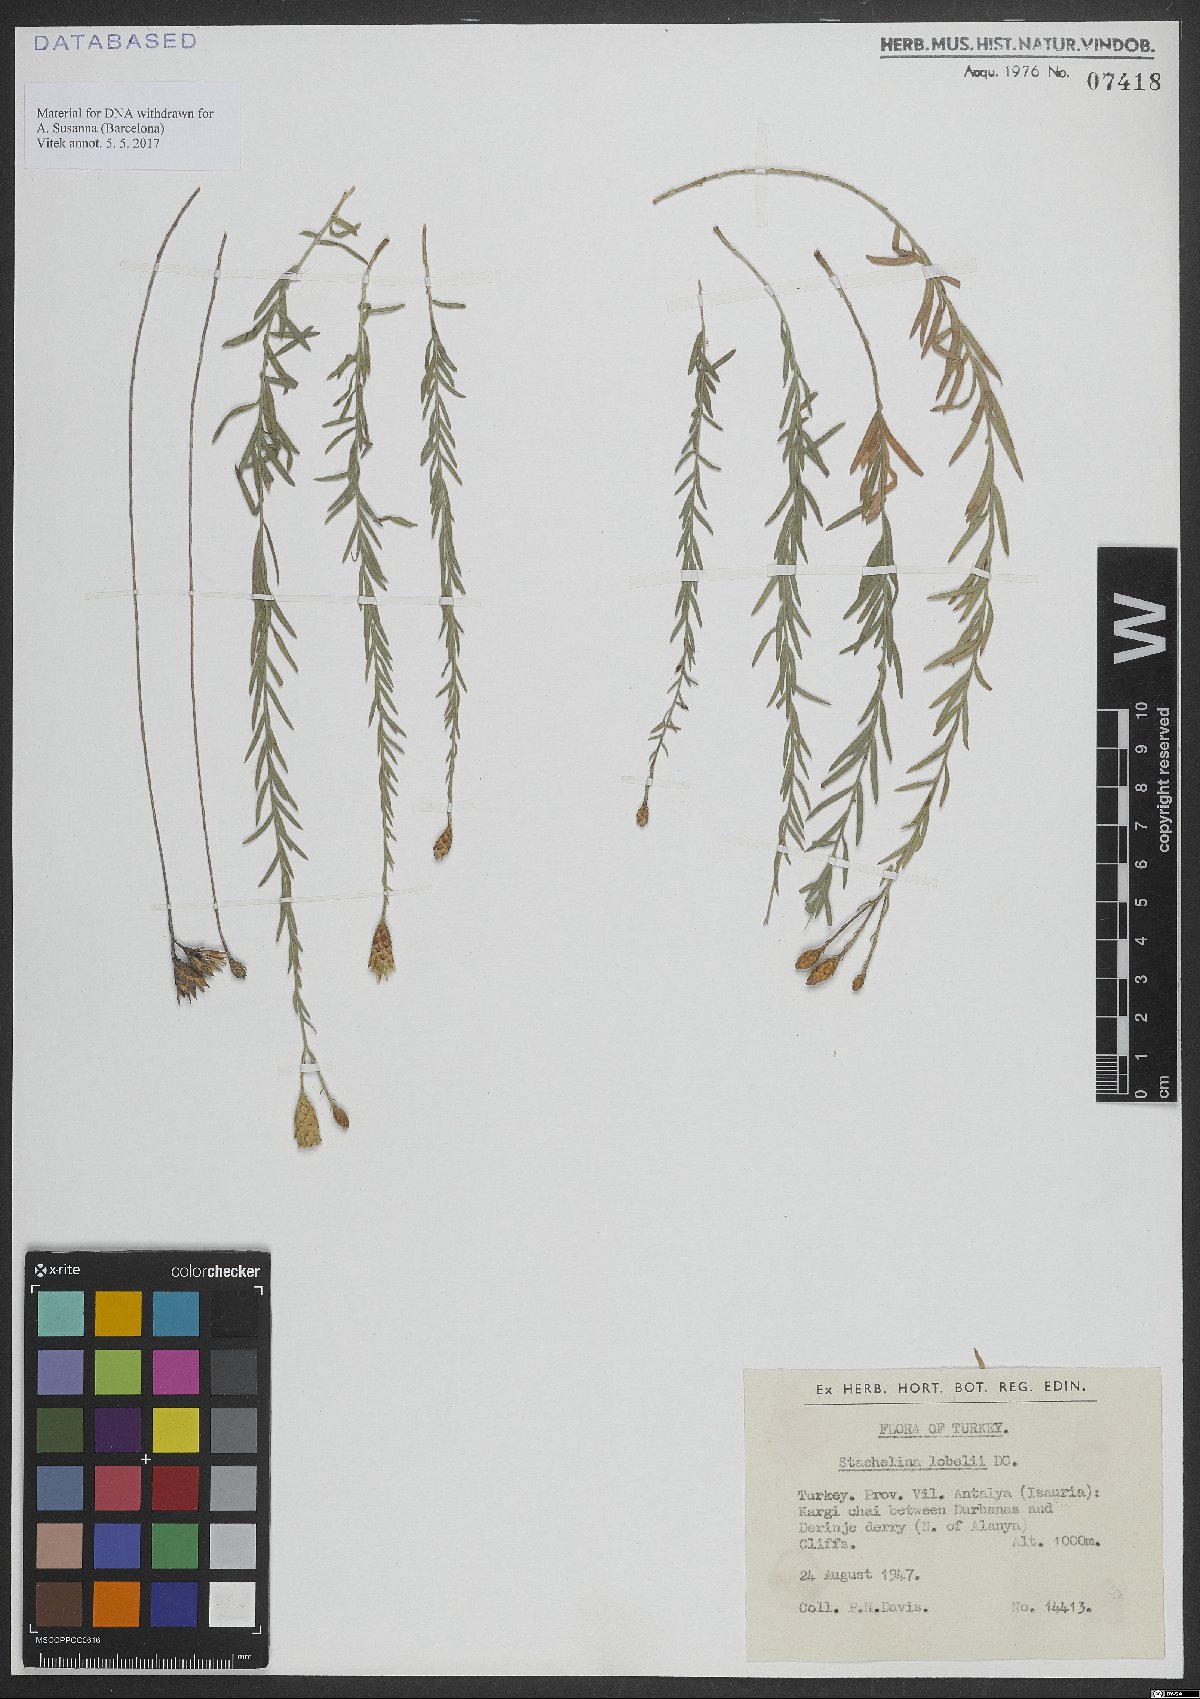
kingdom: Plantae
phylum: Tracheophyta
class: Magnoliopsida
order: Asterales
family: Asteraceae
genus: Staehelina
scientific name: Staehelina
